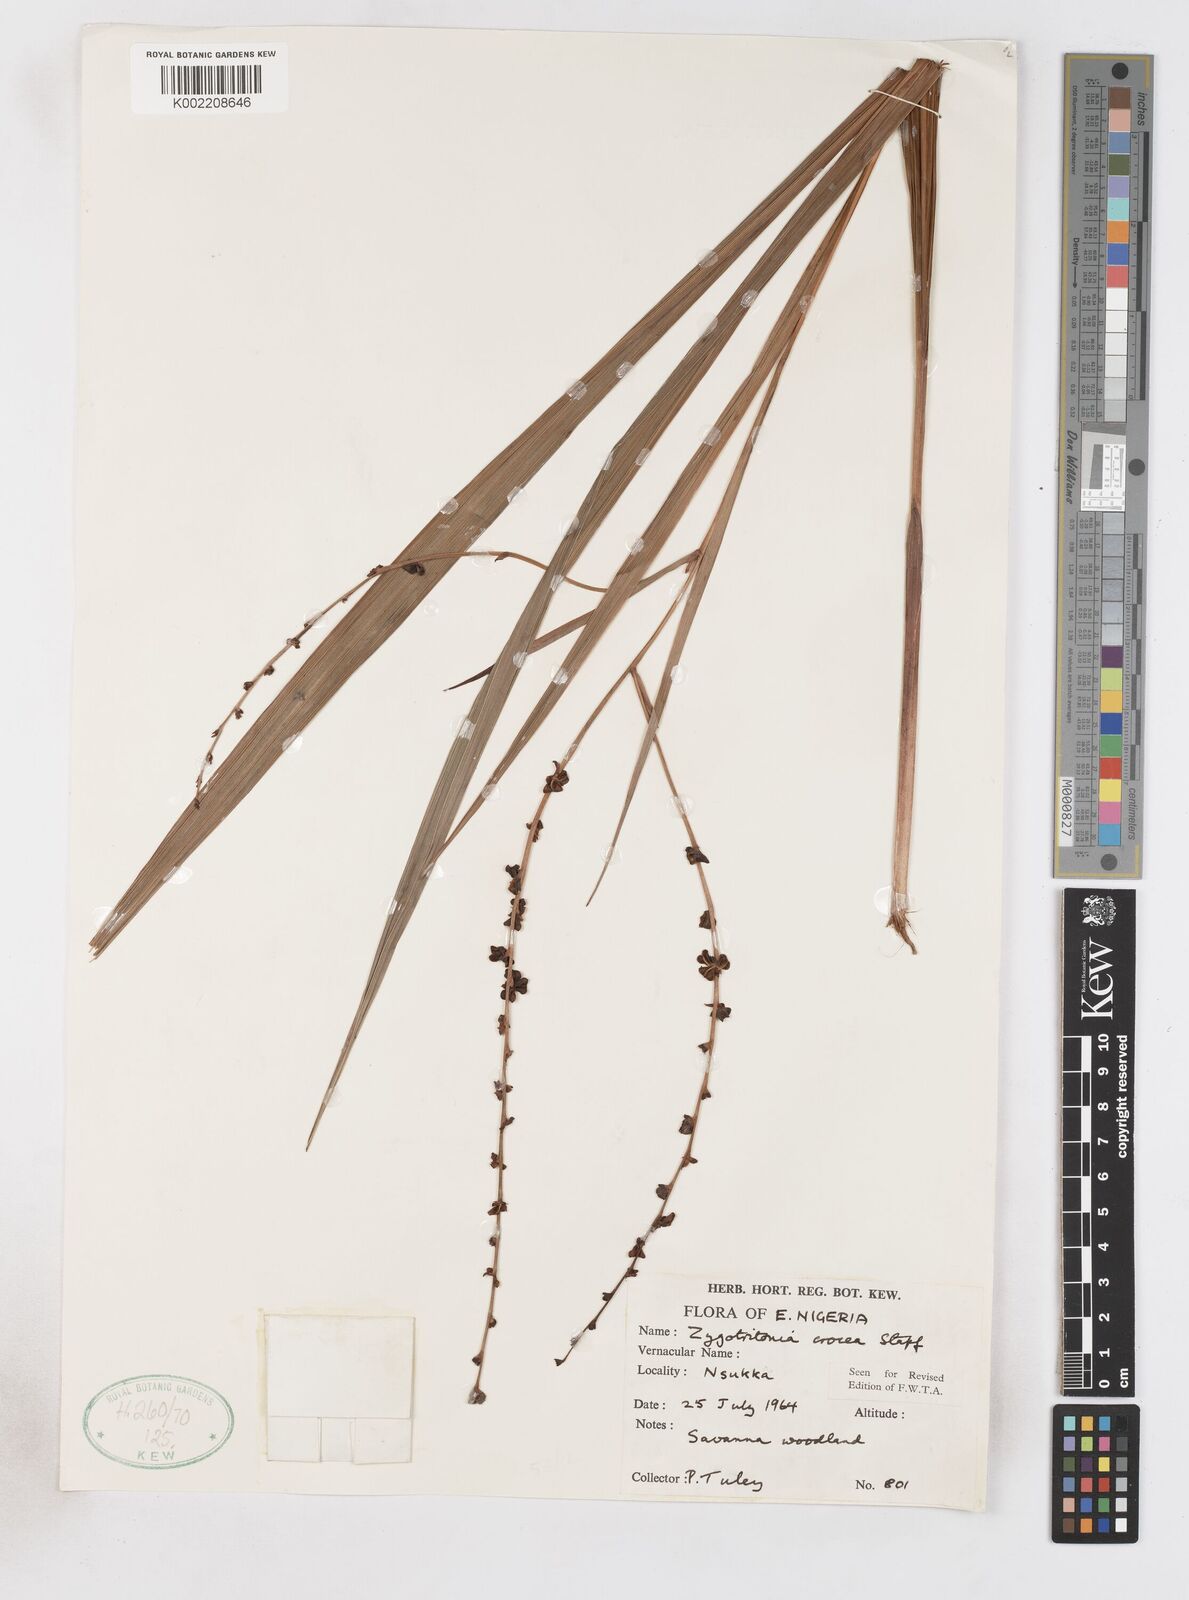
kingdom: Plantae
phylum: Tracheophyta
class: Liliopsida
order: Asparagales
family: Iridaceae
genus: Savannosiphon
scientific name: Savannosiphon
